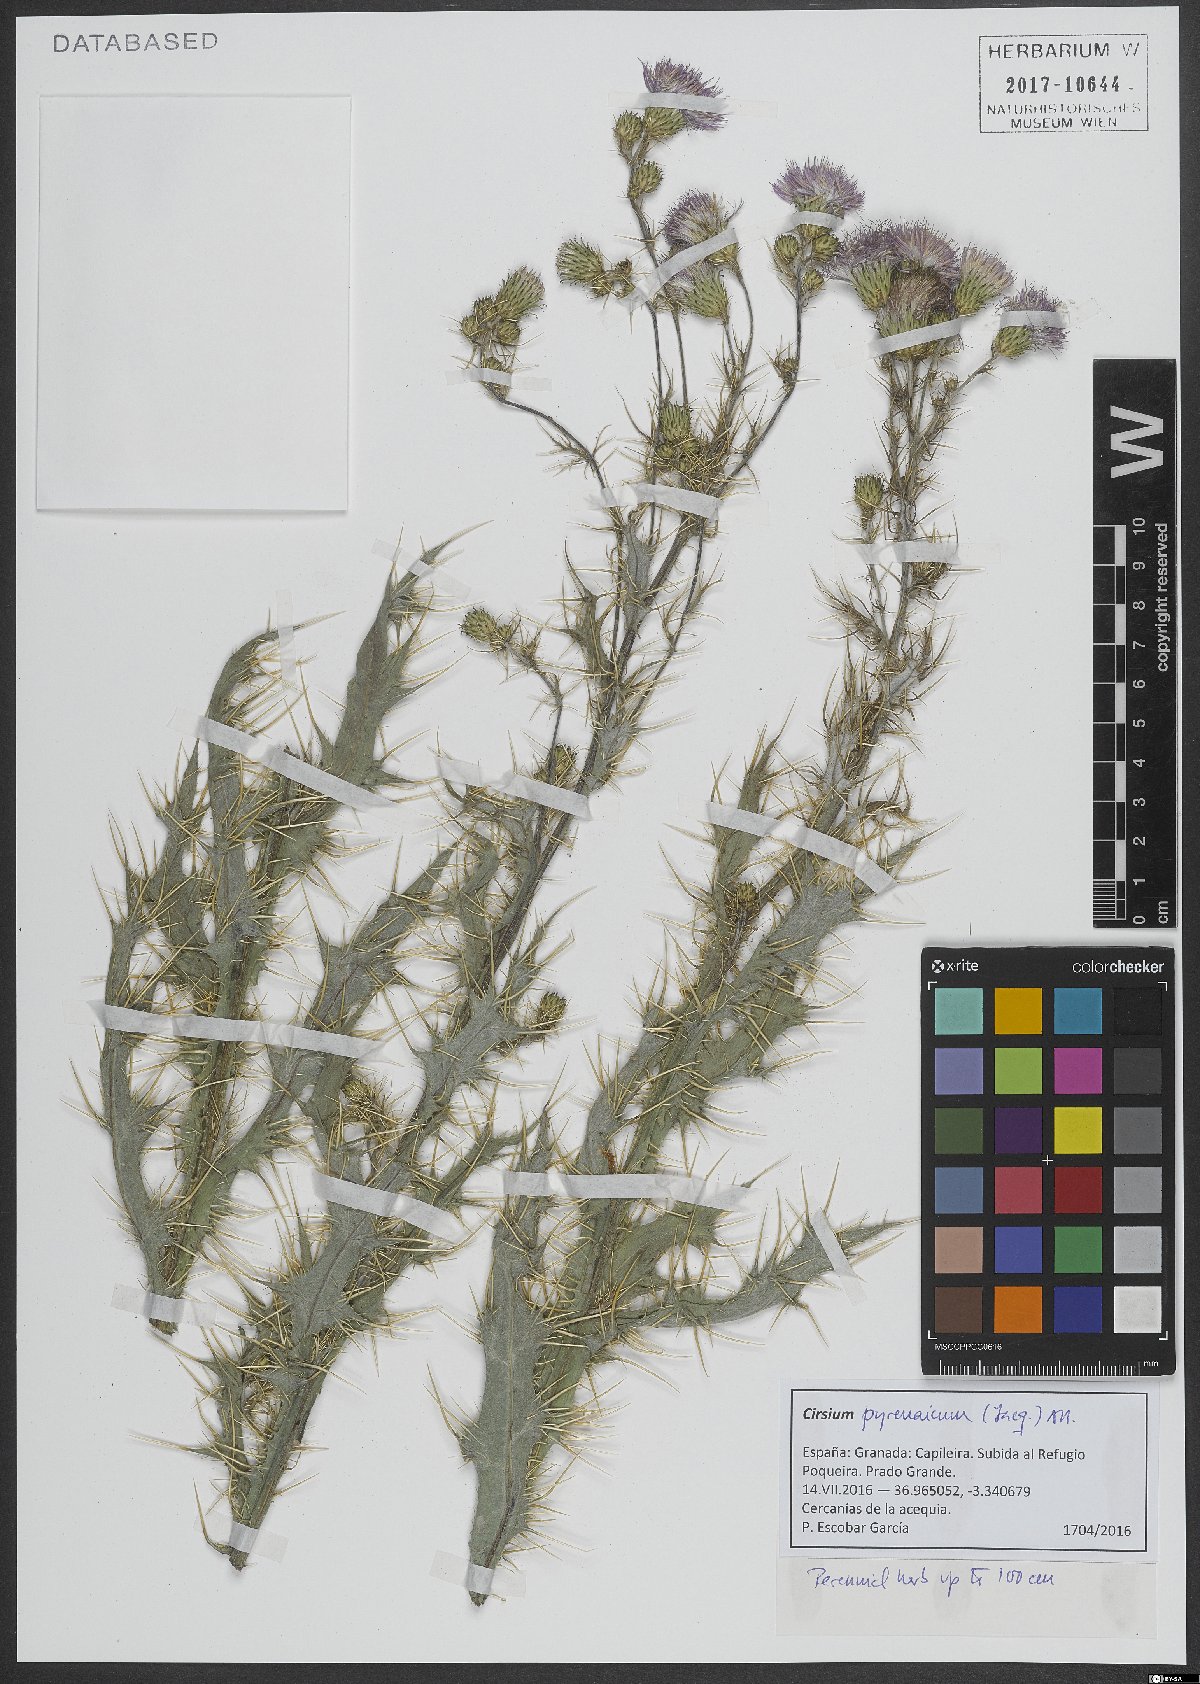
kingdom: Plantae
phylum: Tracheophyta
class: Magnoliopsida
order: Asterales
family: Asteraceae
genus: Cirsium
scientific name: Cirsium pyrenaicum
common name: Pyrenean thistle
